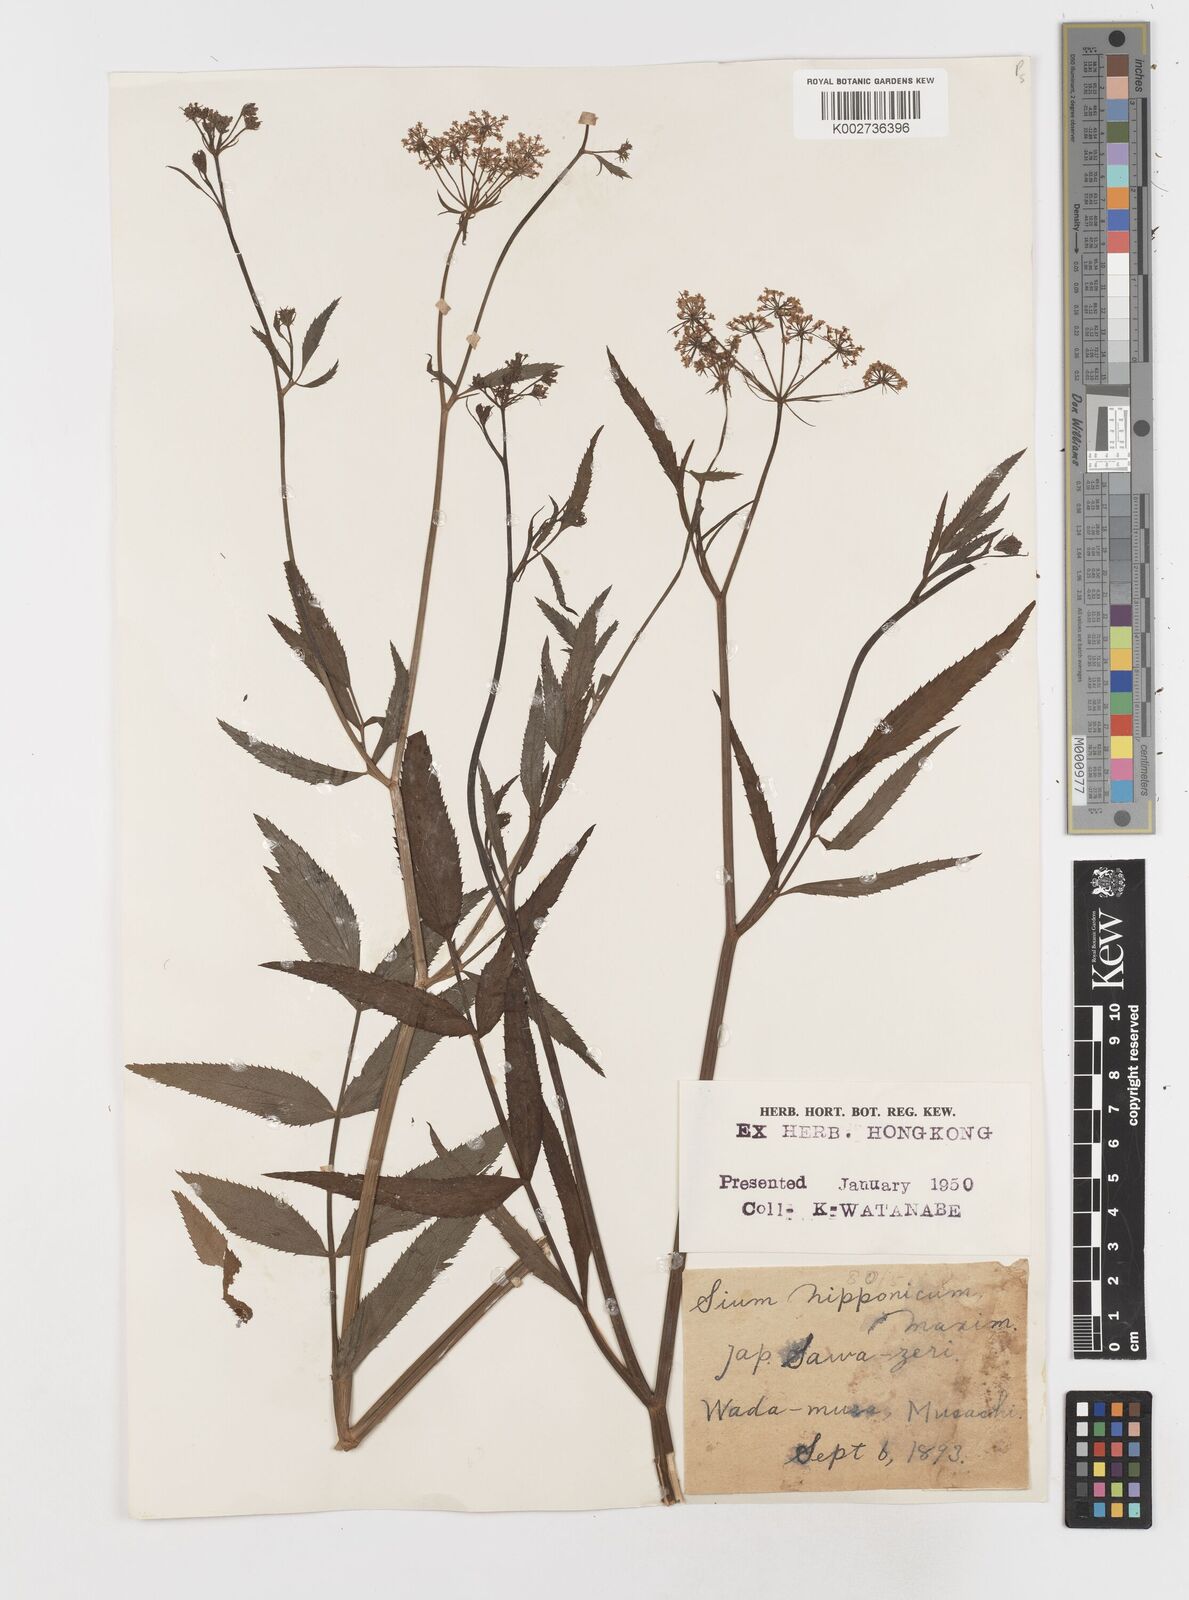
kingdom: Plantae
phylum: Tracheophyta
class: Magnoliopsida
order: Apiales
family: Apiaceae
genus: Sium
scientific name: Sium suave
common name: Hemlock water-parsnip
